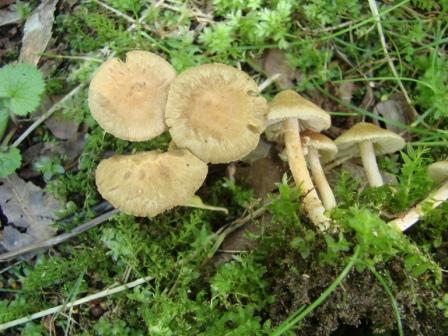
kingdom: Fungi
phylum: Basidiomycota
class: Agaricomycetes
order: Agaricales
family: Inocybaceae
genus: Inocybe
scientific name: Inocybe
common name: trævlhat
